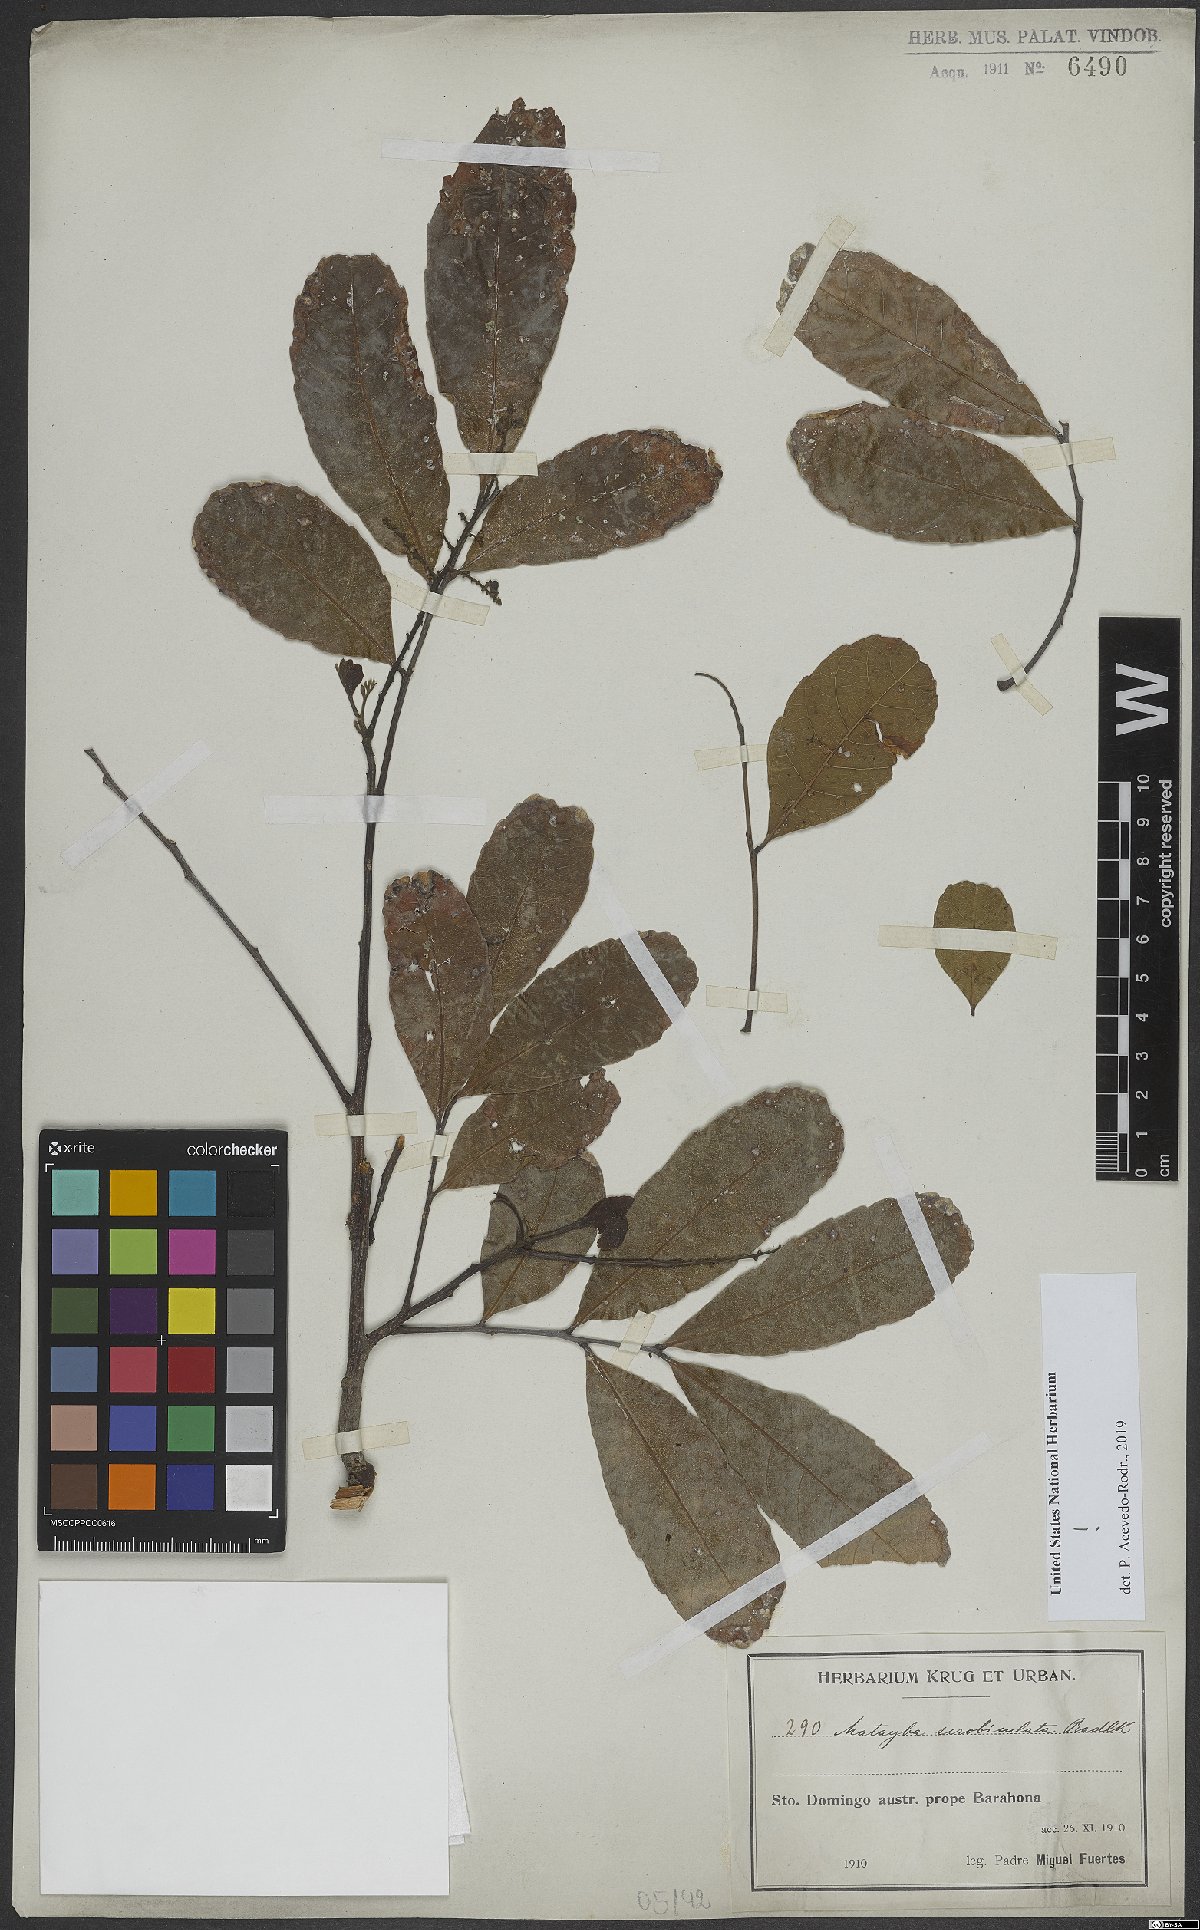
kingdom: Plantae
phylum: Tracheophyta
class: Magnoliopsida
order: Sapindales
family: Sapindaceae
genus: Matayba
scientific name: Matayba scrobiculata
